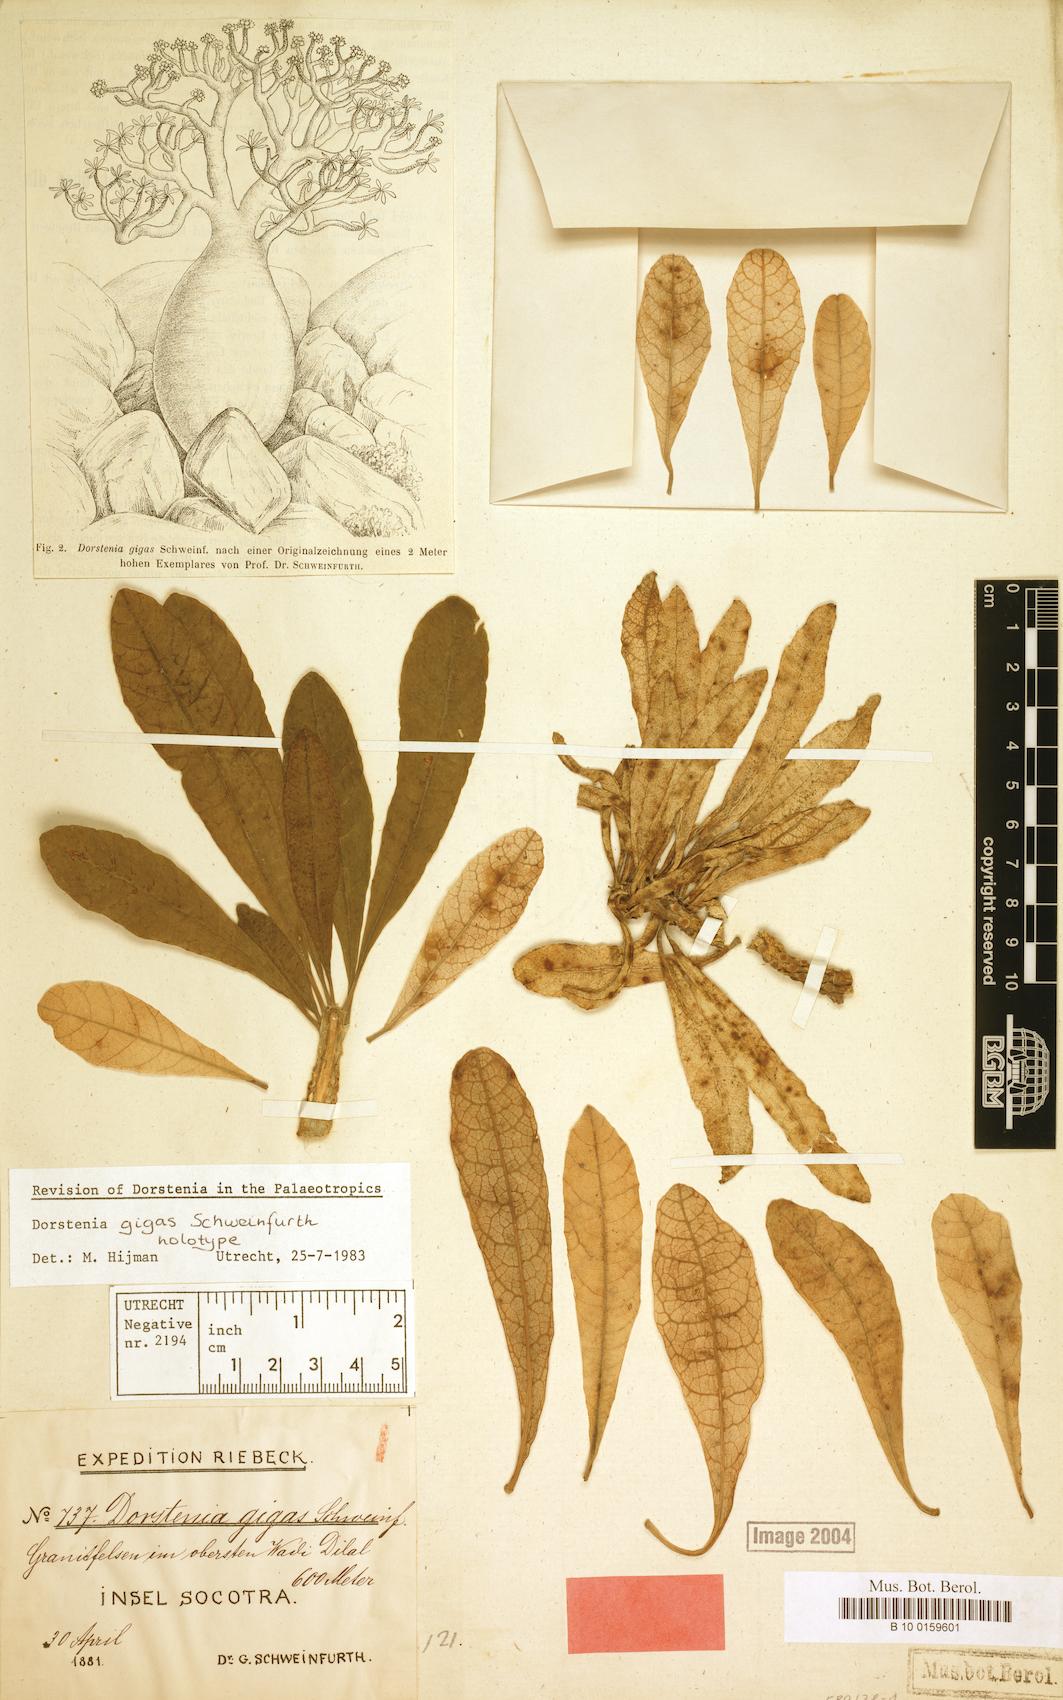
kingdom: Plantae
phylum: Tracheophyta
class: Magnoliopsida
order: Rosales
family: Moraceae
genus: Dorstenia
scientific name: Dorstenia gigas
